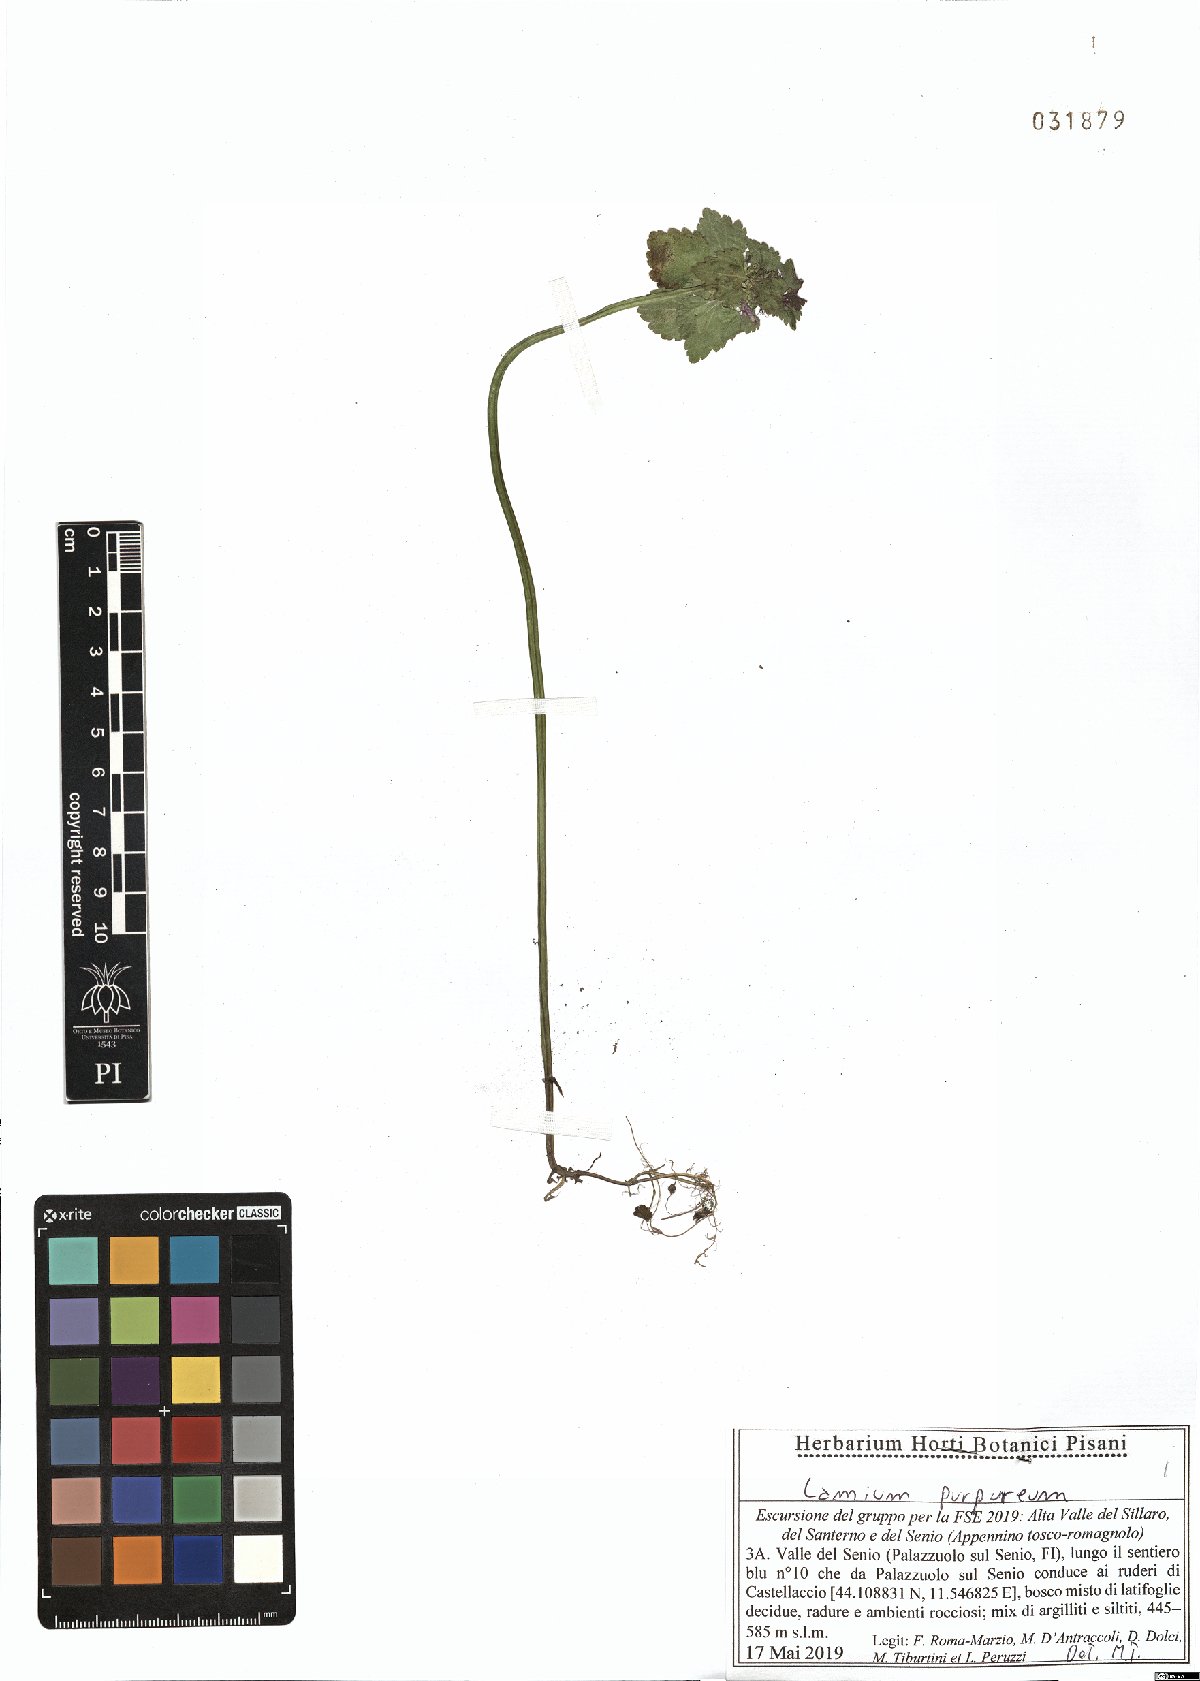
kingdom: Plantae
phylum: Tracheophyta
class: Magnoliopsida
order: Lamiales
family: Lamiaceae
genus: Lamium
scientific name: Lamium purpureum
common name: Red dead-nettle
